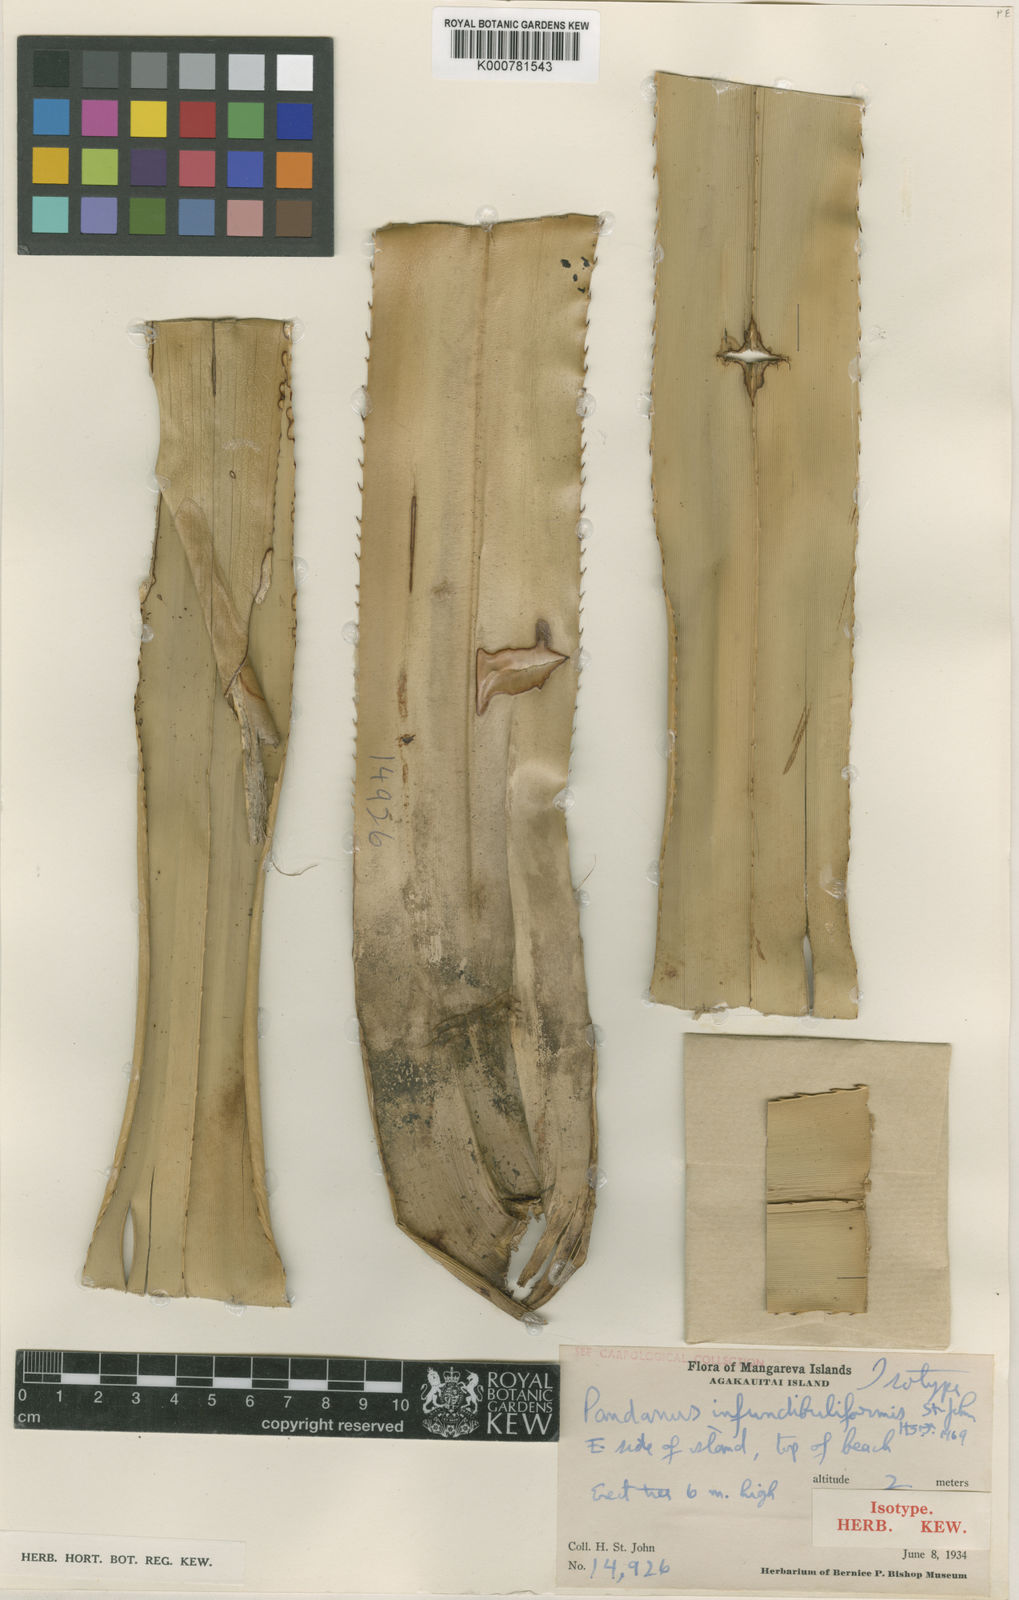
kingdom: Plantae
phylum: Tracheophyta
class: Liliopsida
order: Pandanales
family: Pandanaceae
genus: Pandanus
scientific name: Pandanus tectorius
